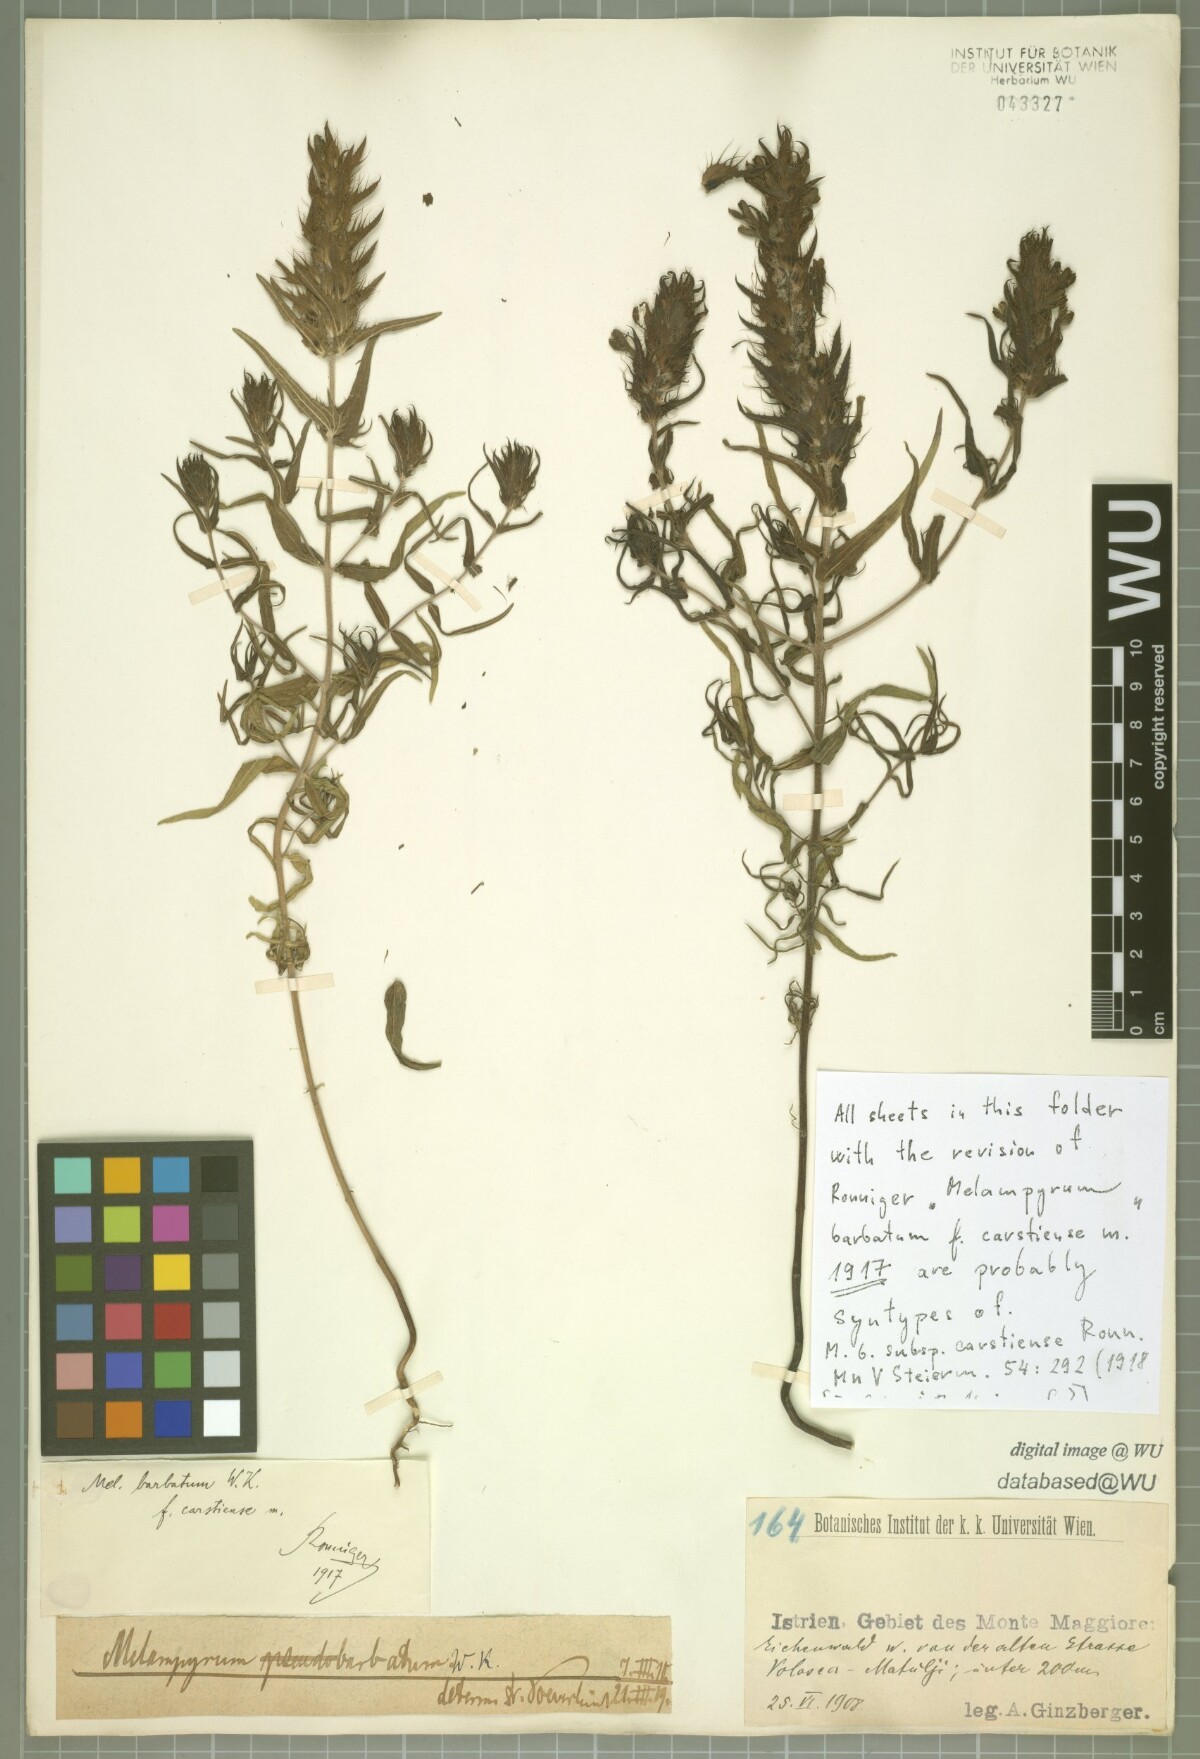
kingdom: Plantae
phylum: Tracheophyta
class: Magnoliopsida
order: Lamiales
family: Orobanchaceae
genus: Melampyrum
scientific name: Melampyrum barbatum
